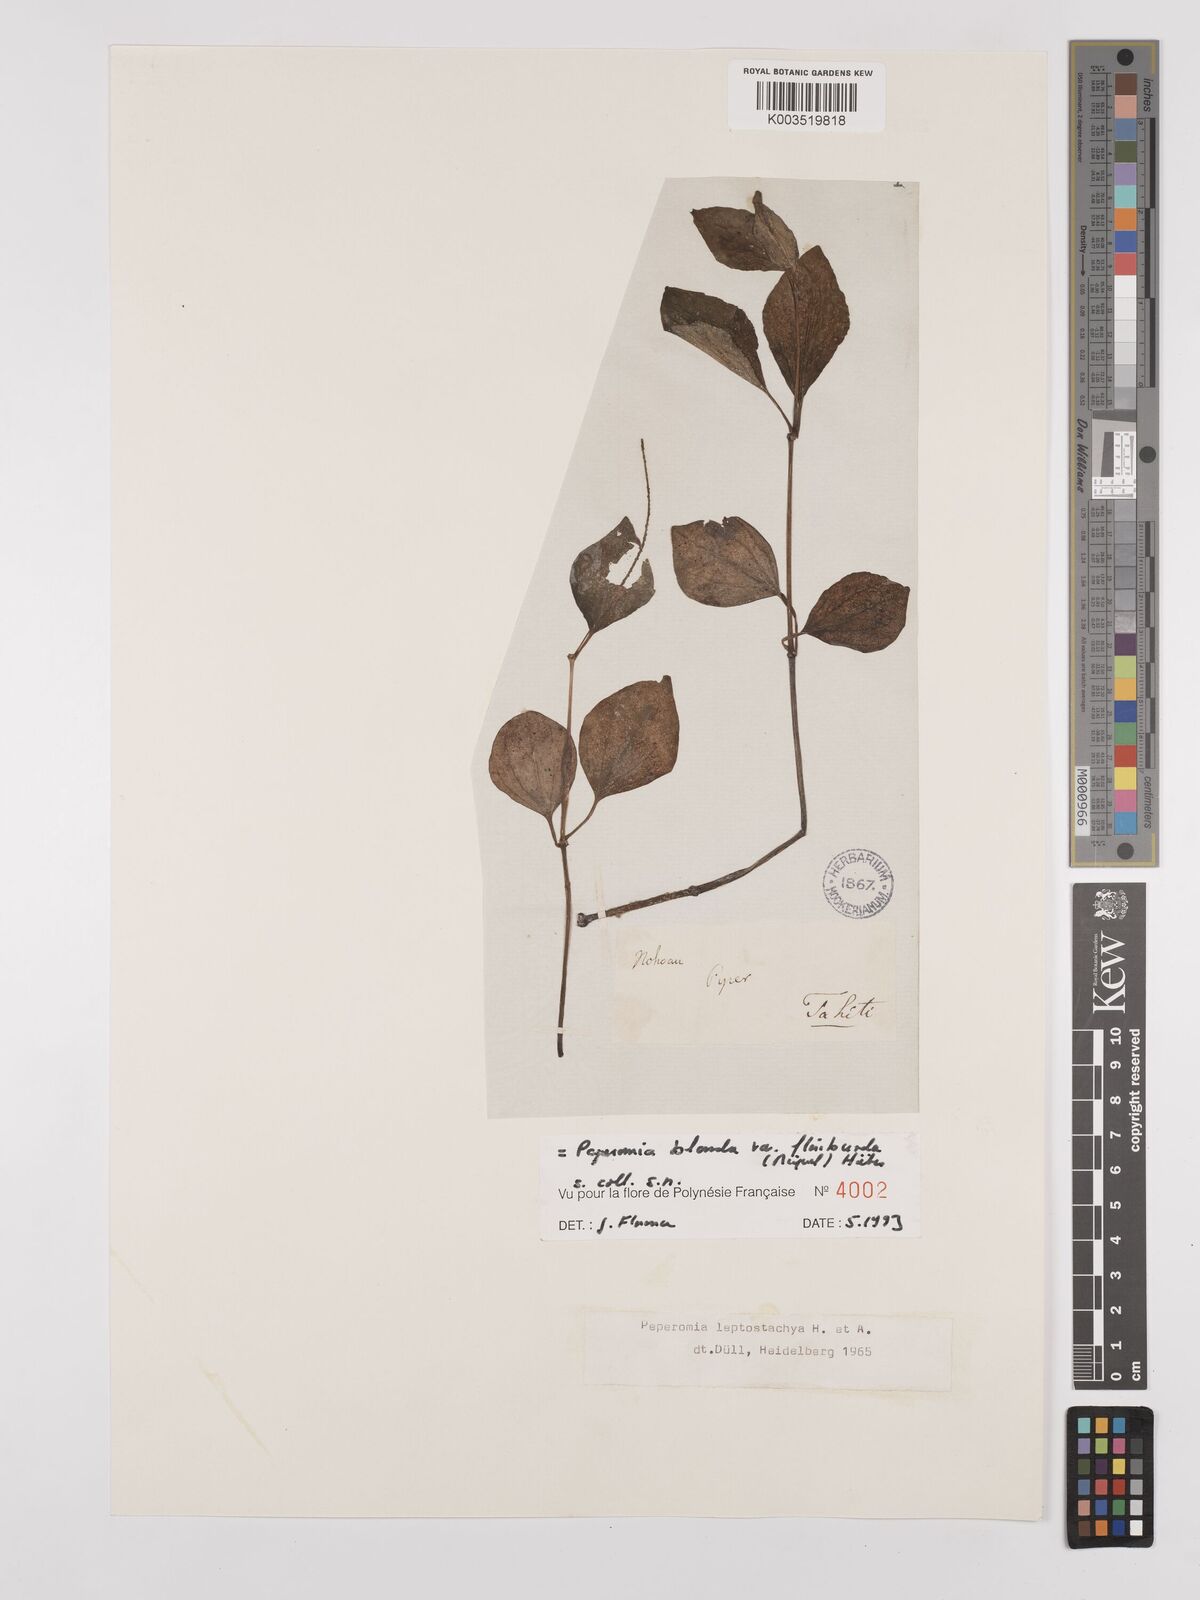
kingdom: Plantae
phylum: Tracheophyta
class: Magnoliopsida
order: Piperales
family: Piperaceae
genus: Peperomia
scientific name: Peperomia leptostachya
